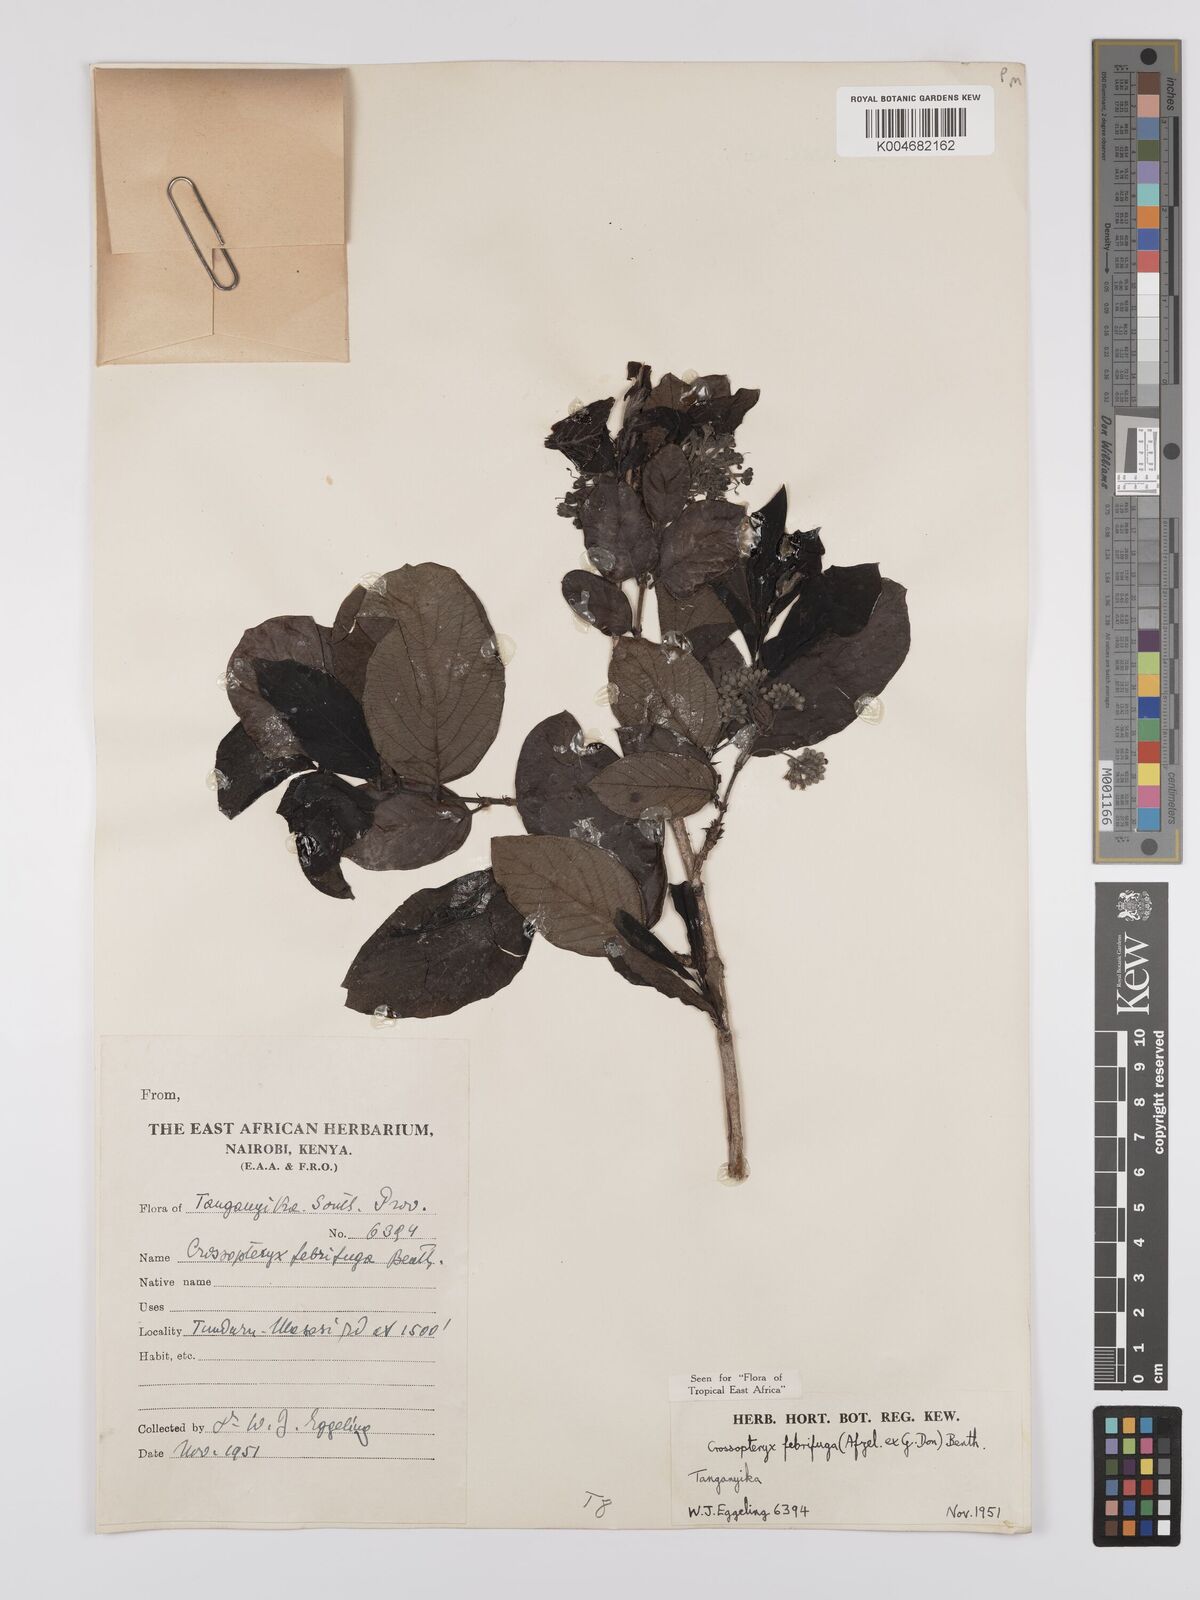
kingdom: Plantae
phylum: Tracheophyta
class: Magnoliopsida
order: Gentianales
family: Rubiaceae
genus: Crossopteryx
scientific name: Crossopteryx febrifuga
